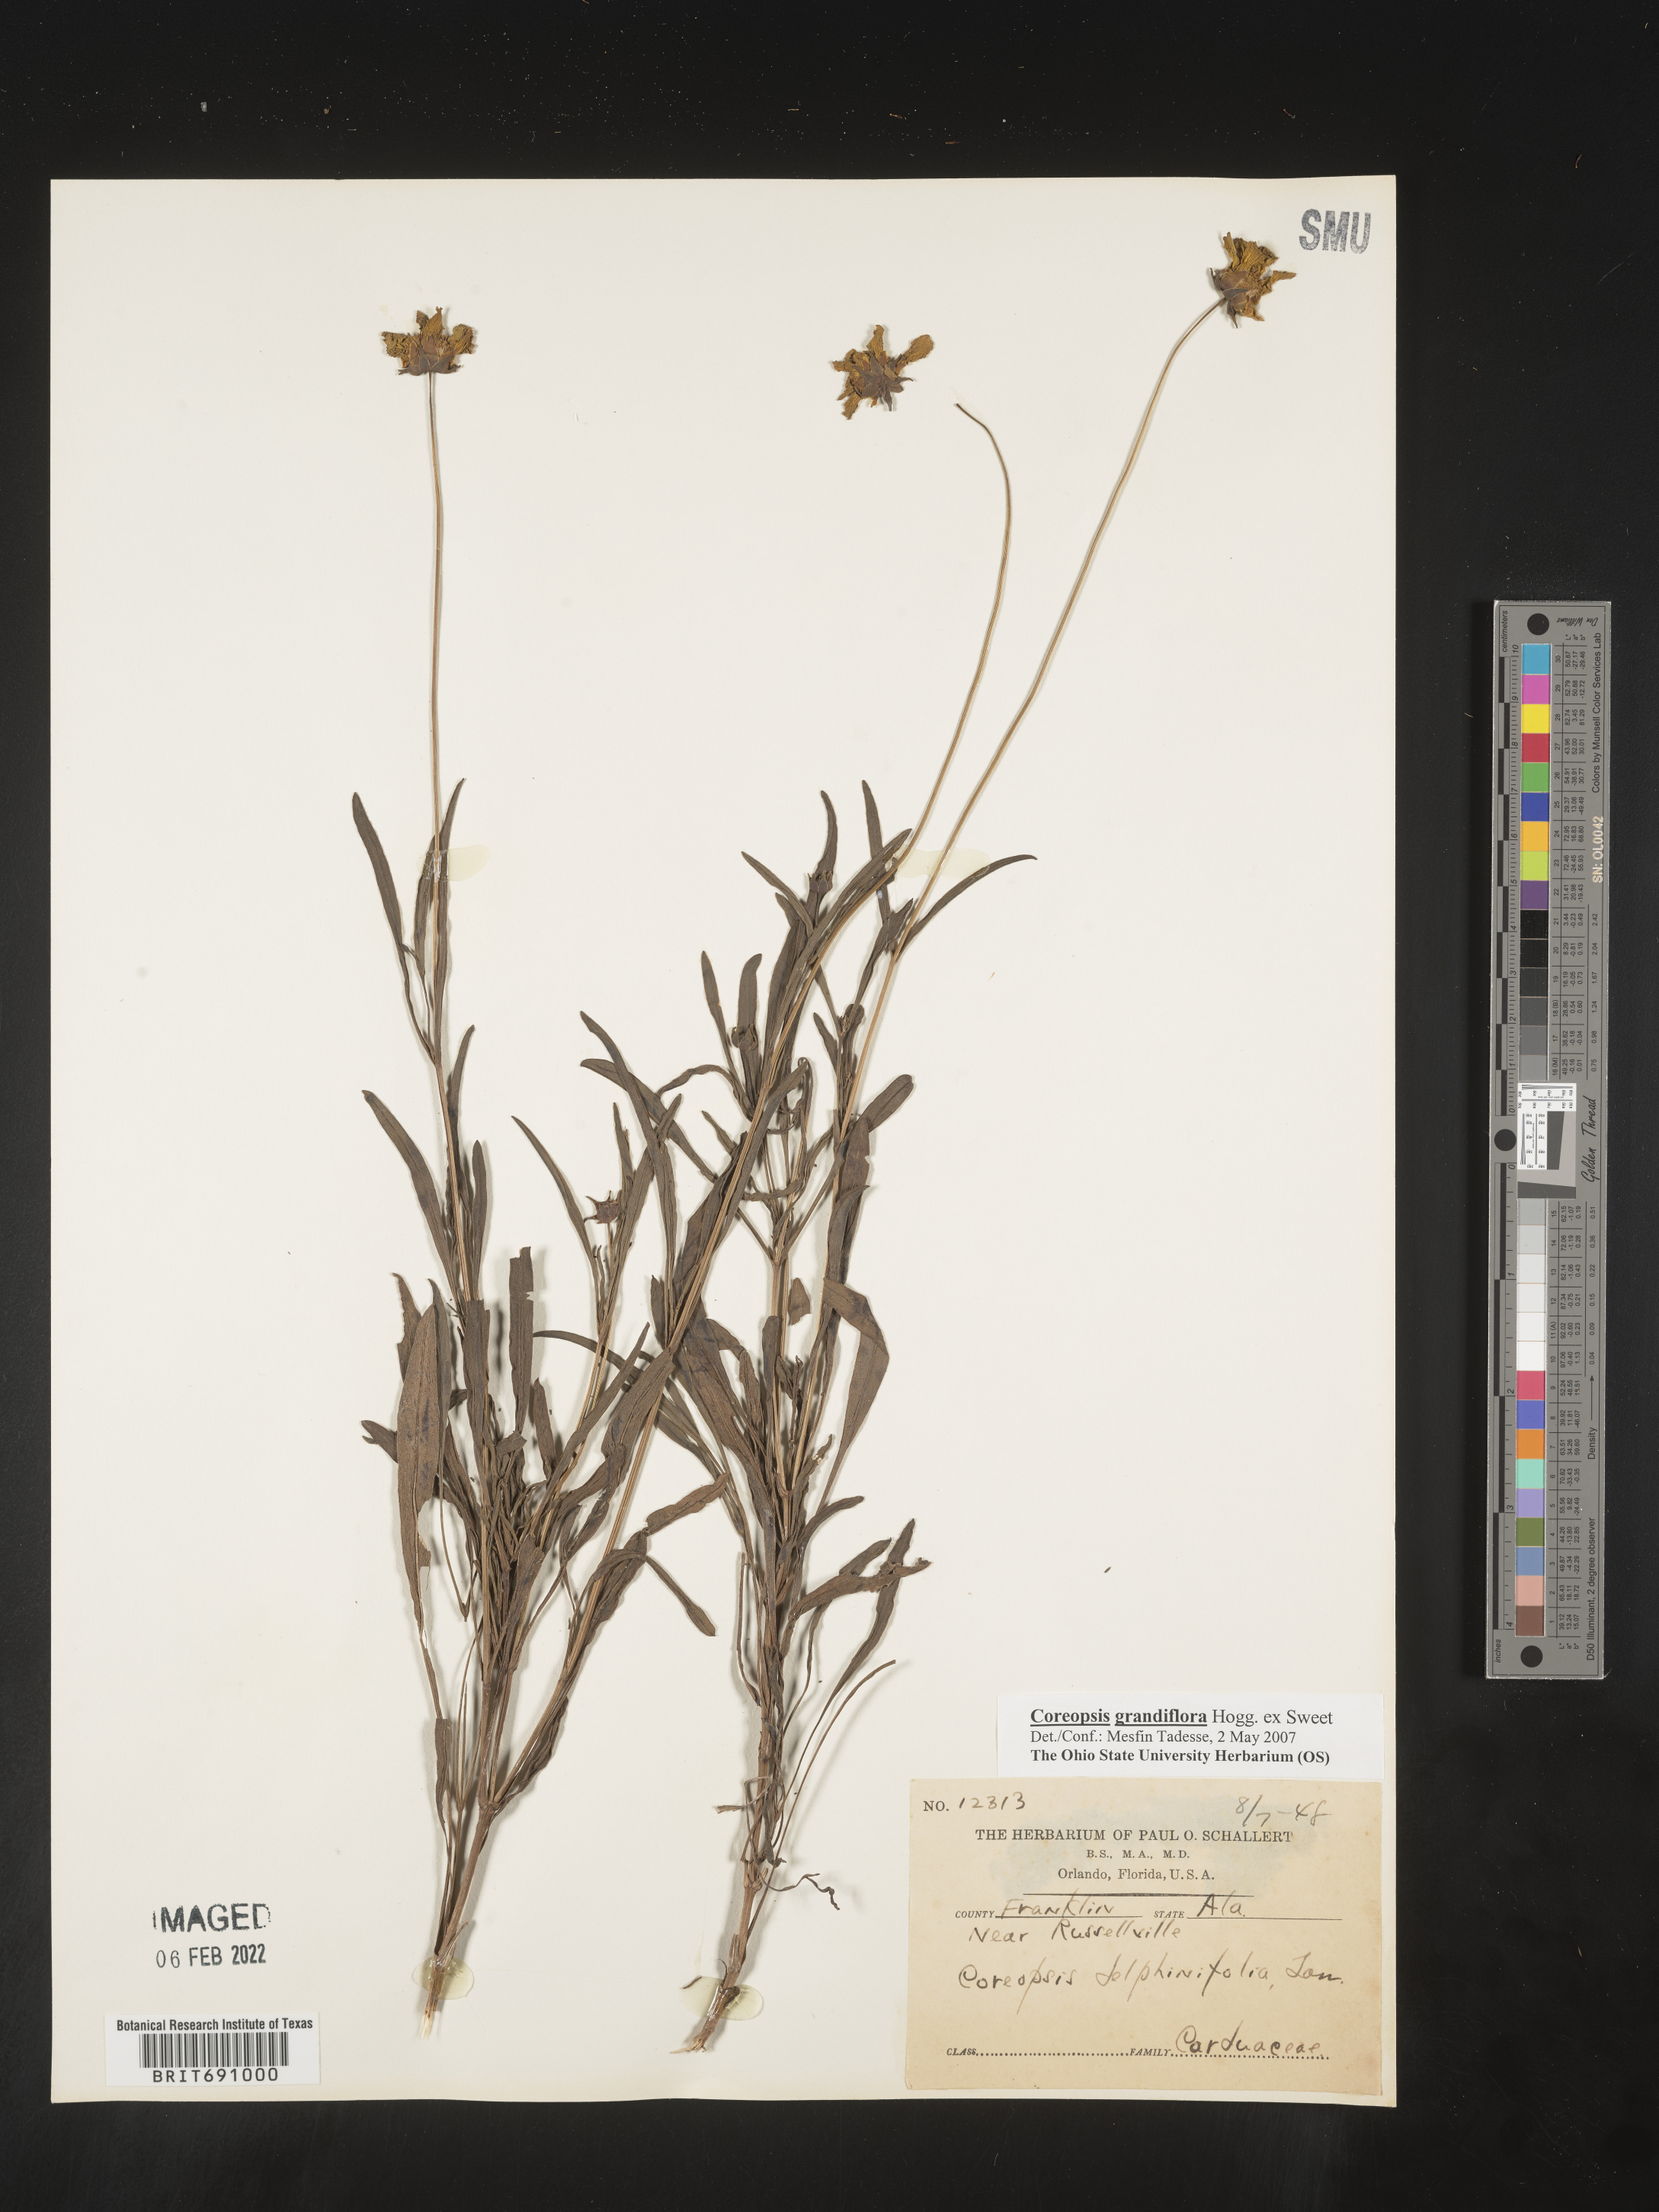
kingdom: Plantae
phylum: Tracheophyta
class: Magnoliopsida
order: Asterales
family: Asteraceae
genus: Coreopsis
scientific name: Coreopsis grandiflora
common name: Large-flowered tickseed
